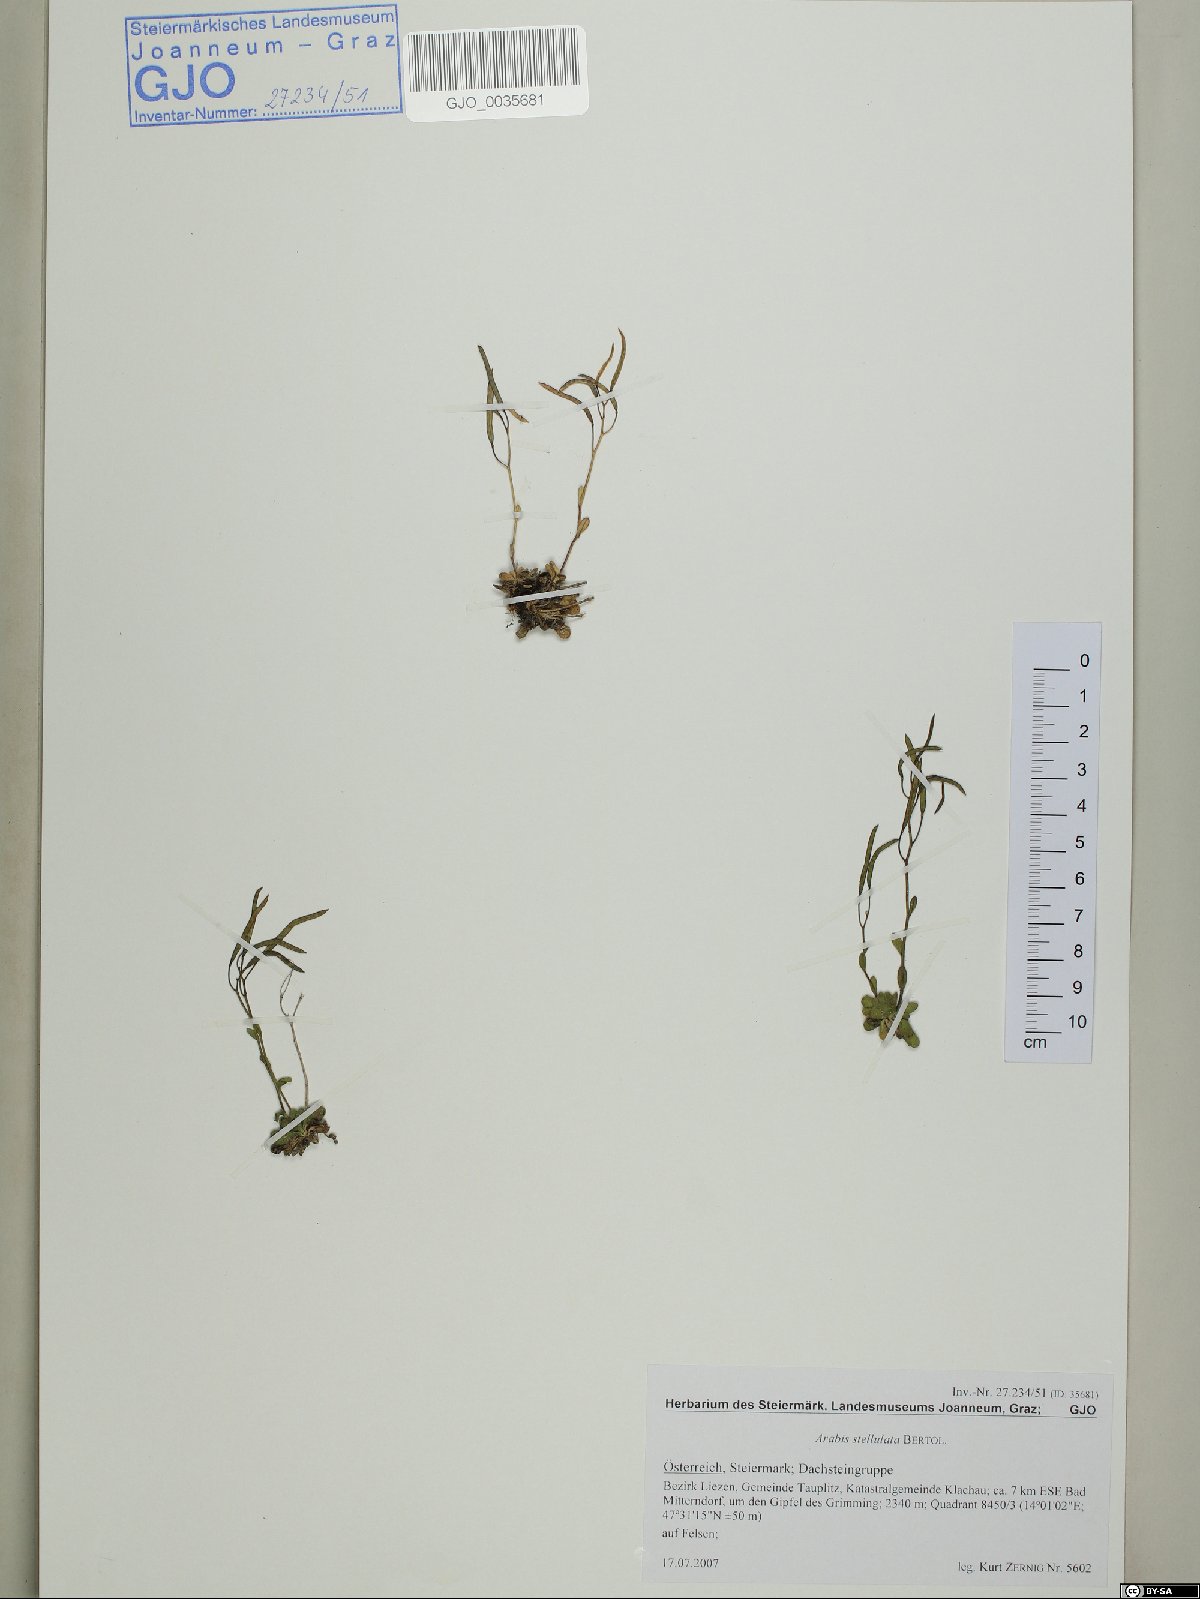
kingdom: Plantae
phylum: Tracheophyta
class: Magnoliopsida
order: Brassicales
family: Brassicaceae
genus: Arabis
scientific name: Arabis stellulata
